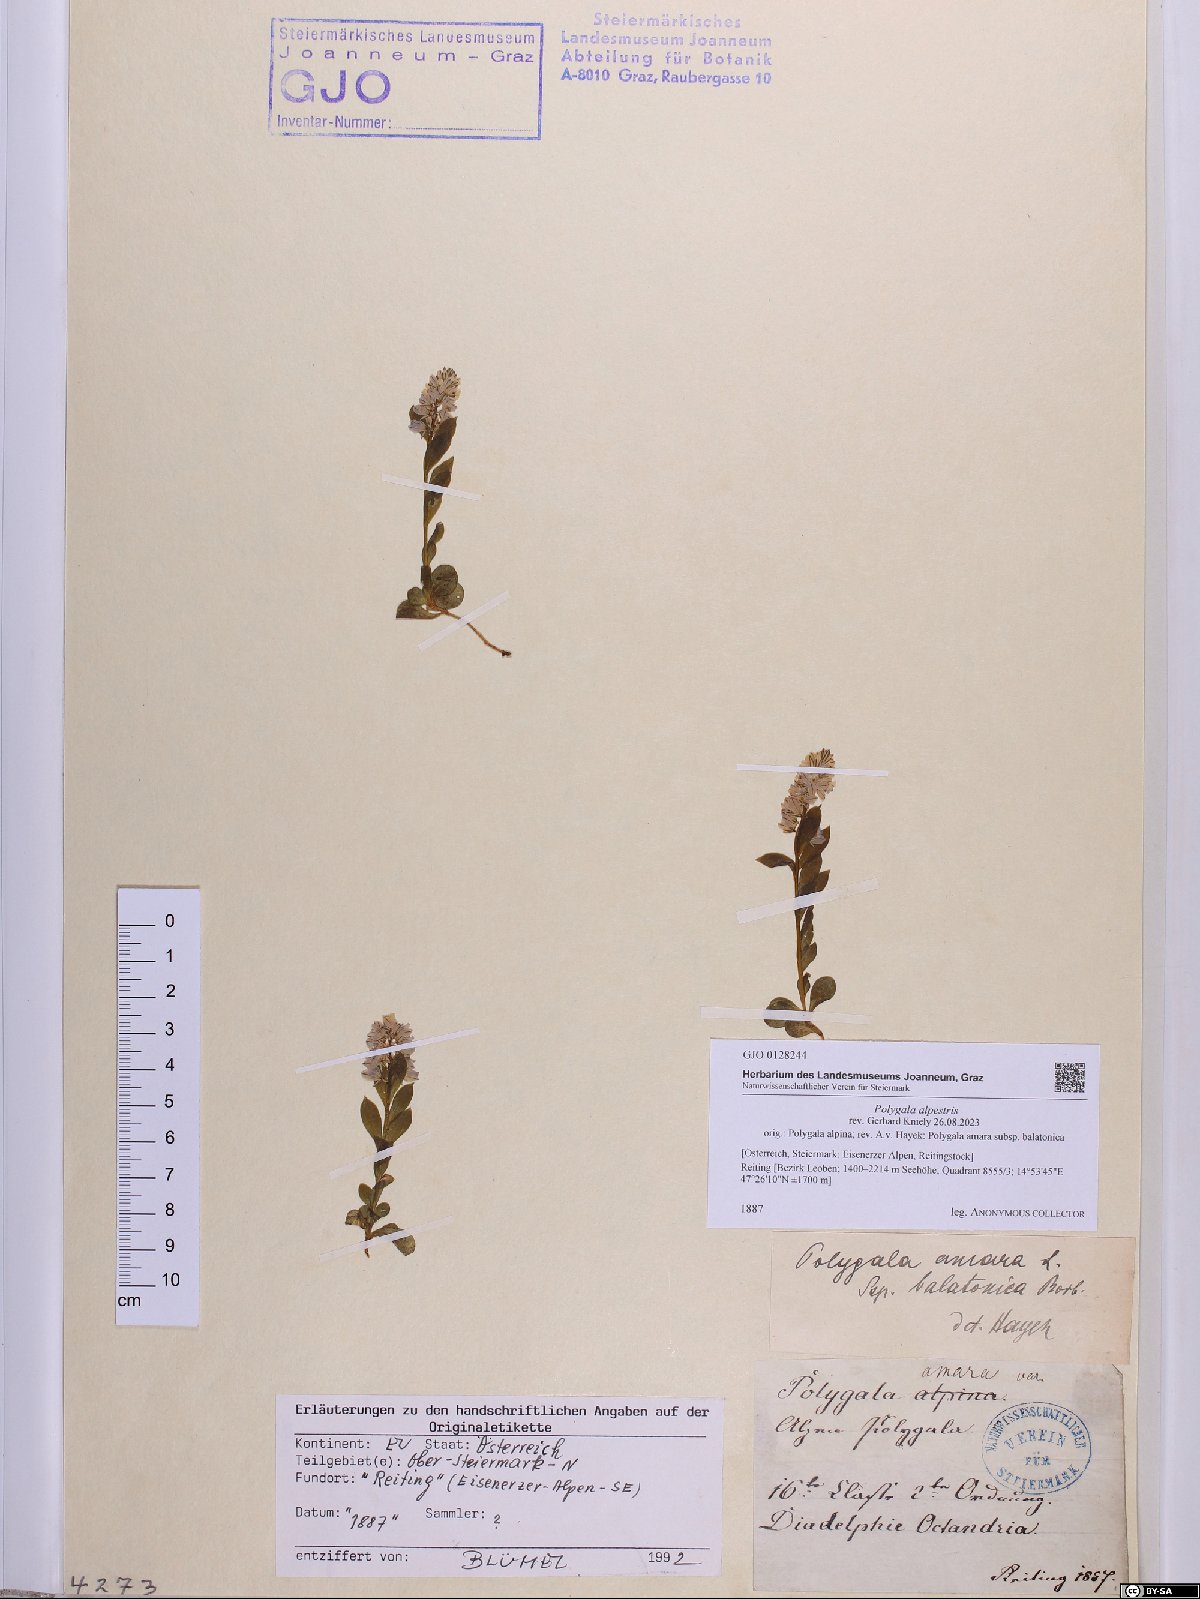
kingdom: Plantae
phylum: Tracheophyta
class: Magnoliopsida
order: Fabales
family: Polygalaceae
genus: Polygala
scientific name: Polygala alpestris
